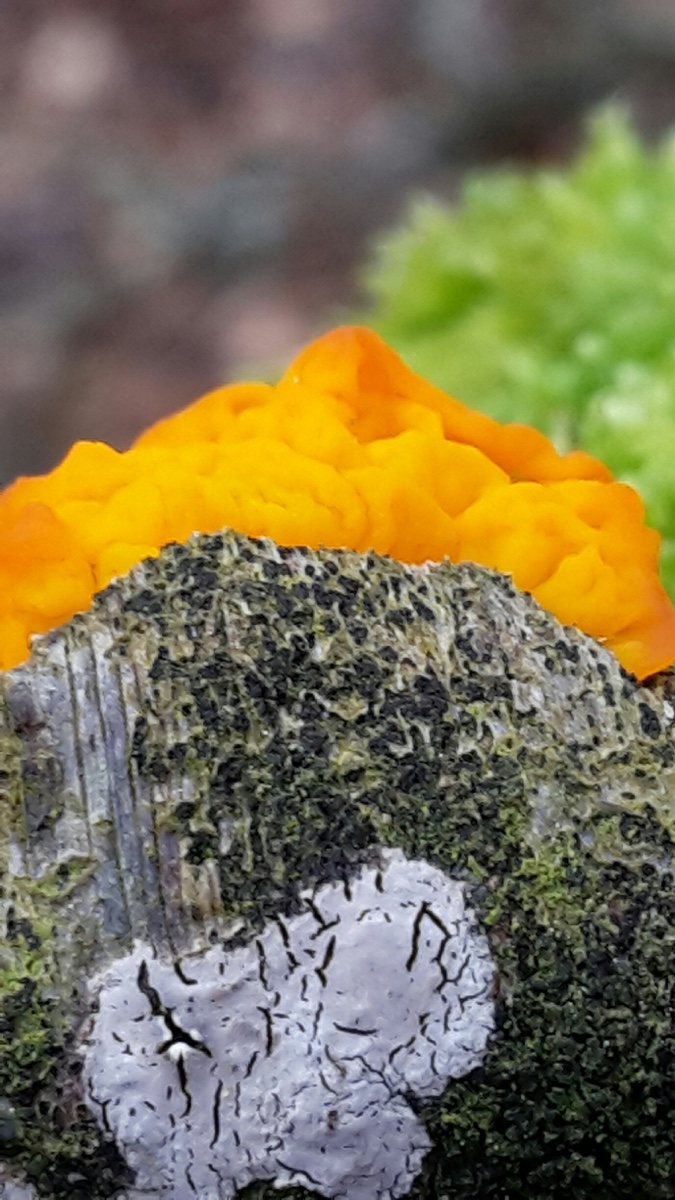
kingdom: Fungi
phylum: Basidiomycota
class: Tremellomycetes
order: Tremellales
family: Tremellaceae
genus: Tremella
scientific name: Tremella mesenterica
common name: gul bævresvamp
